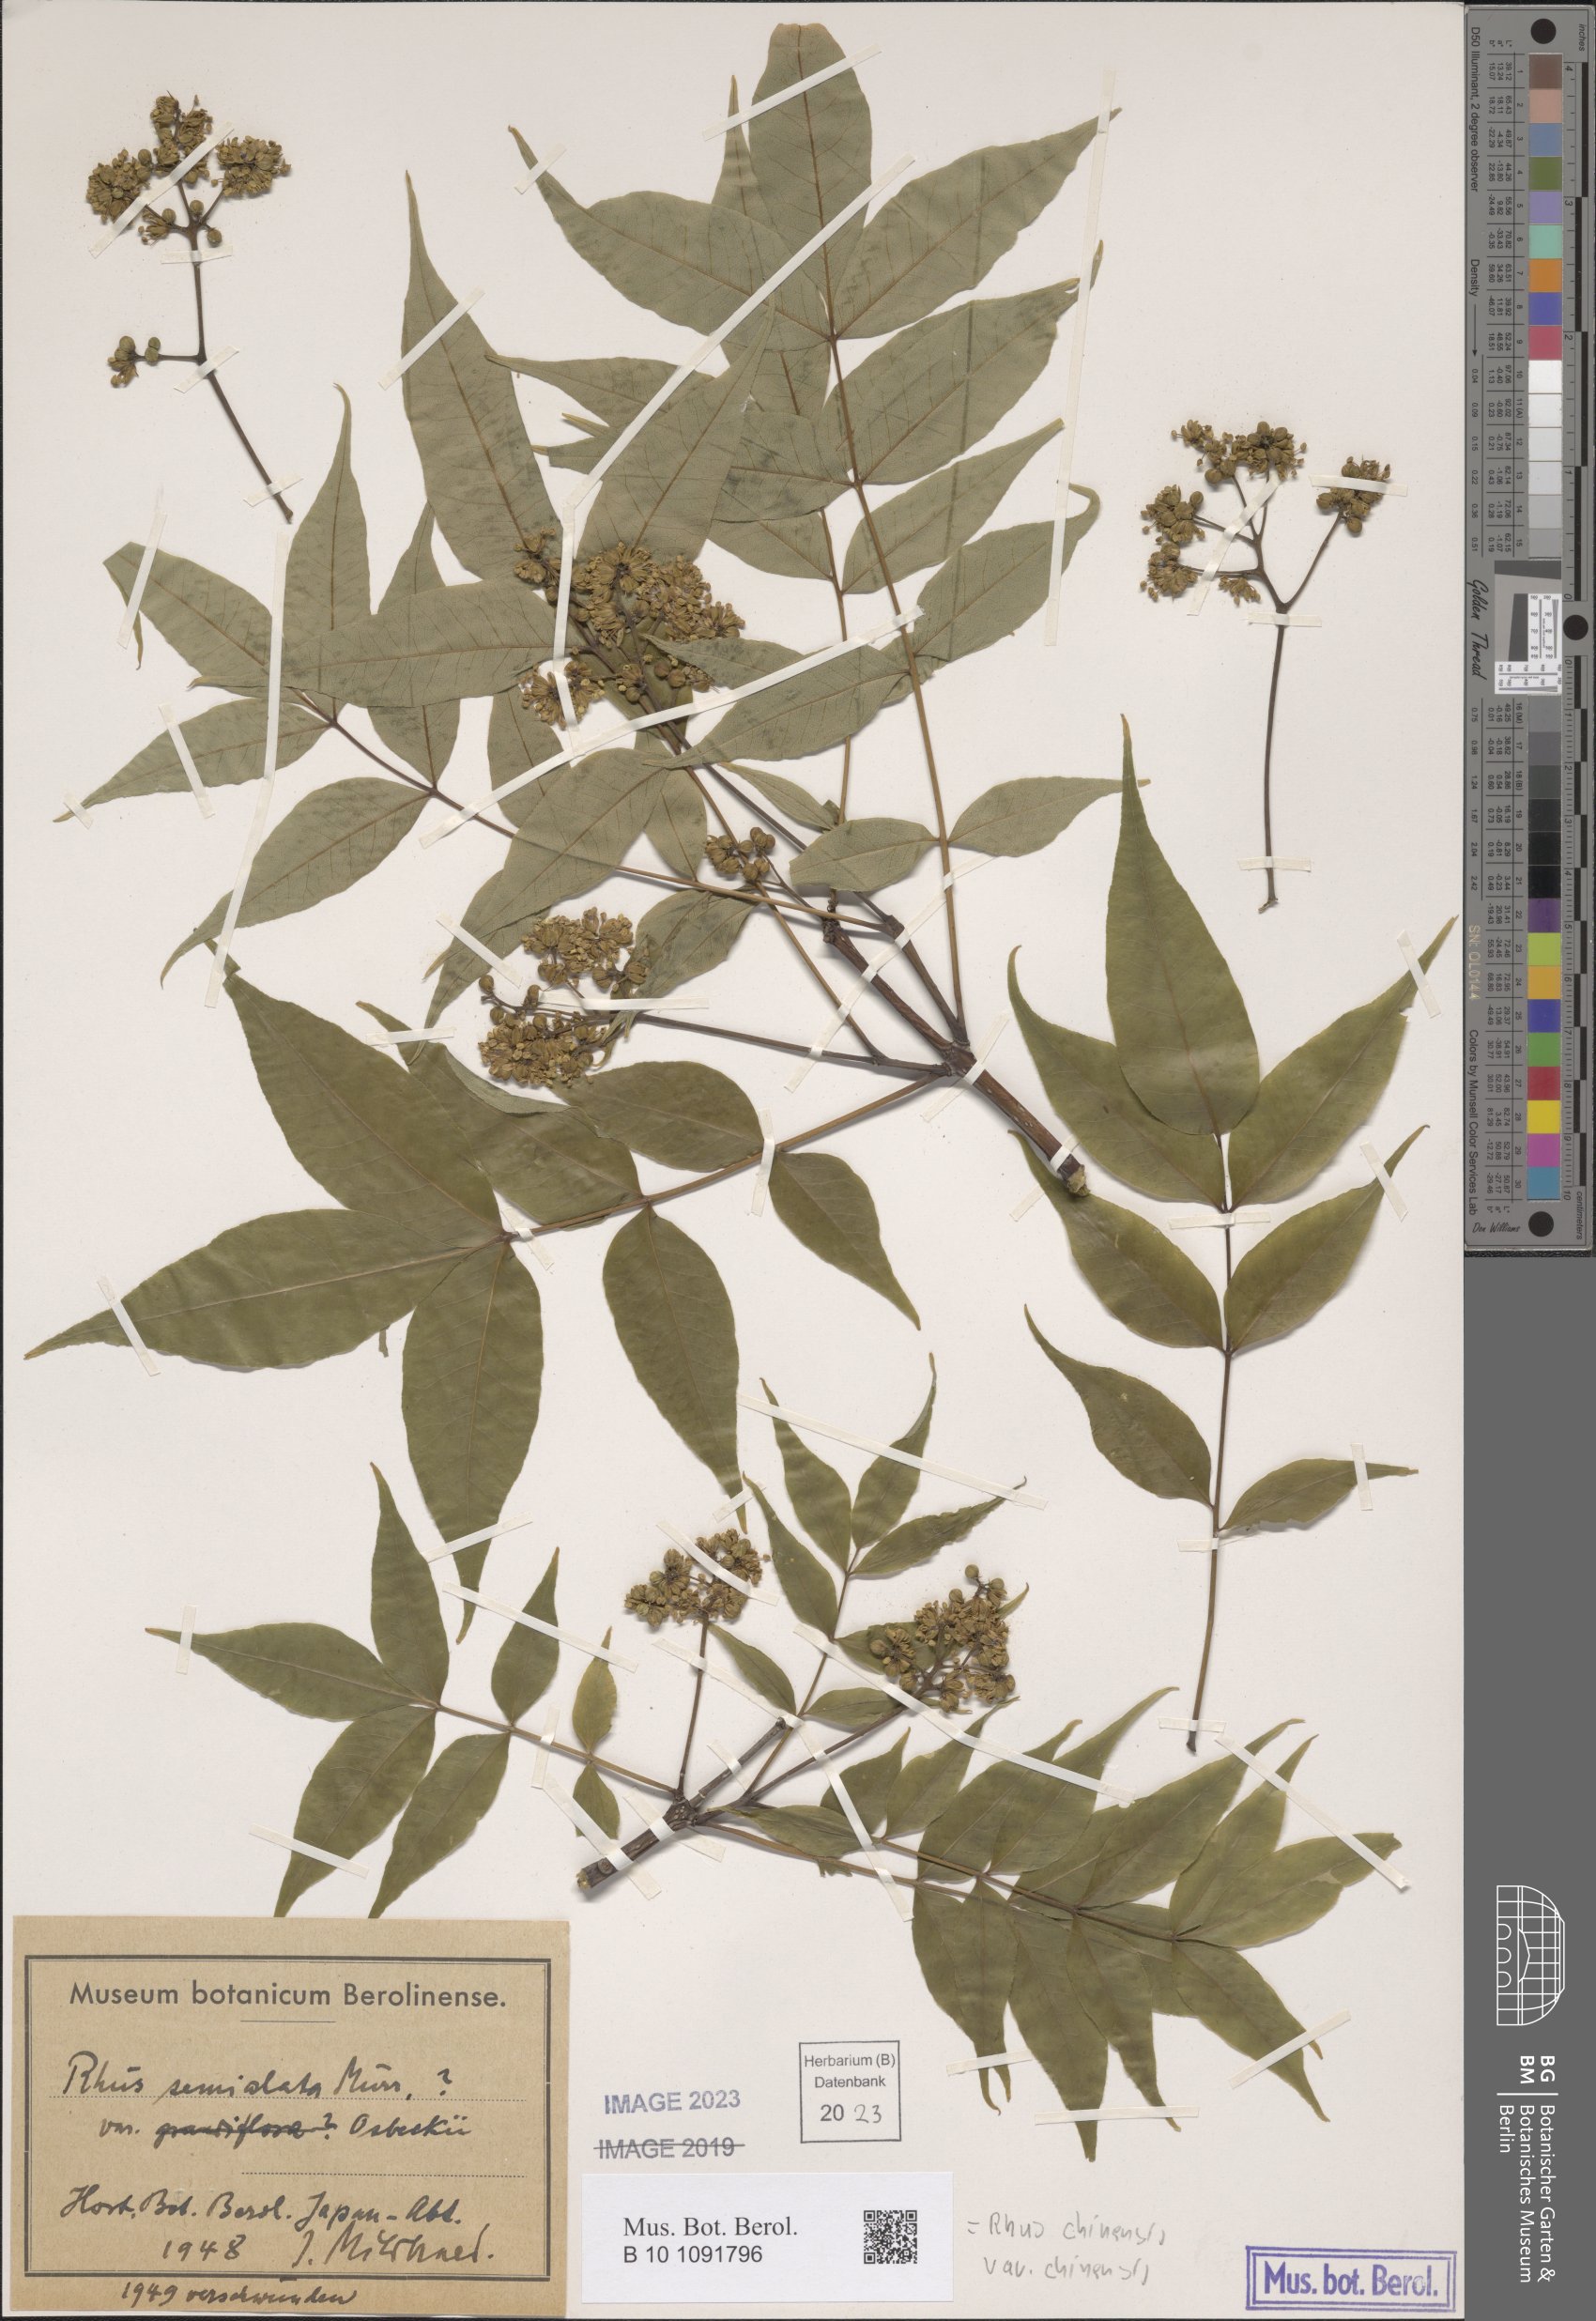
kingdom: Plantae
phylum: Tracheophyta
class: Magnoliopsida
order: Sapindales
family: Anacardiaceae
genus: Rhus
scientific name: Rhus chinensis
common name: Chinese gall
